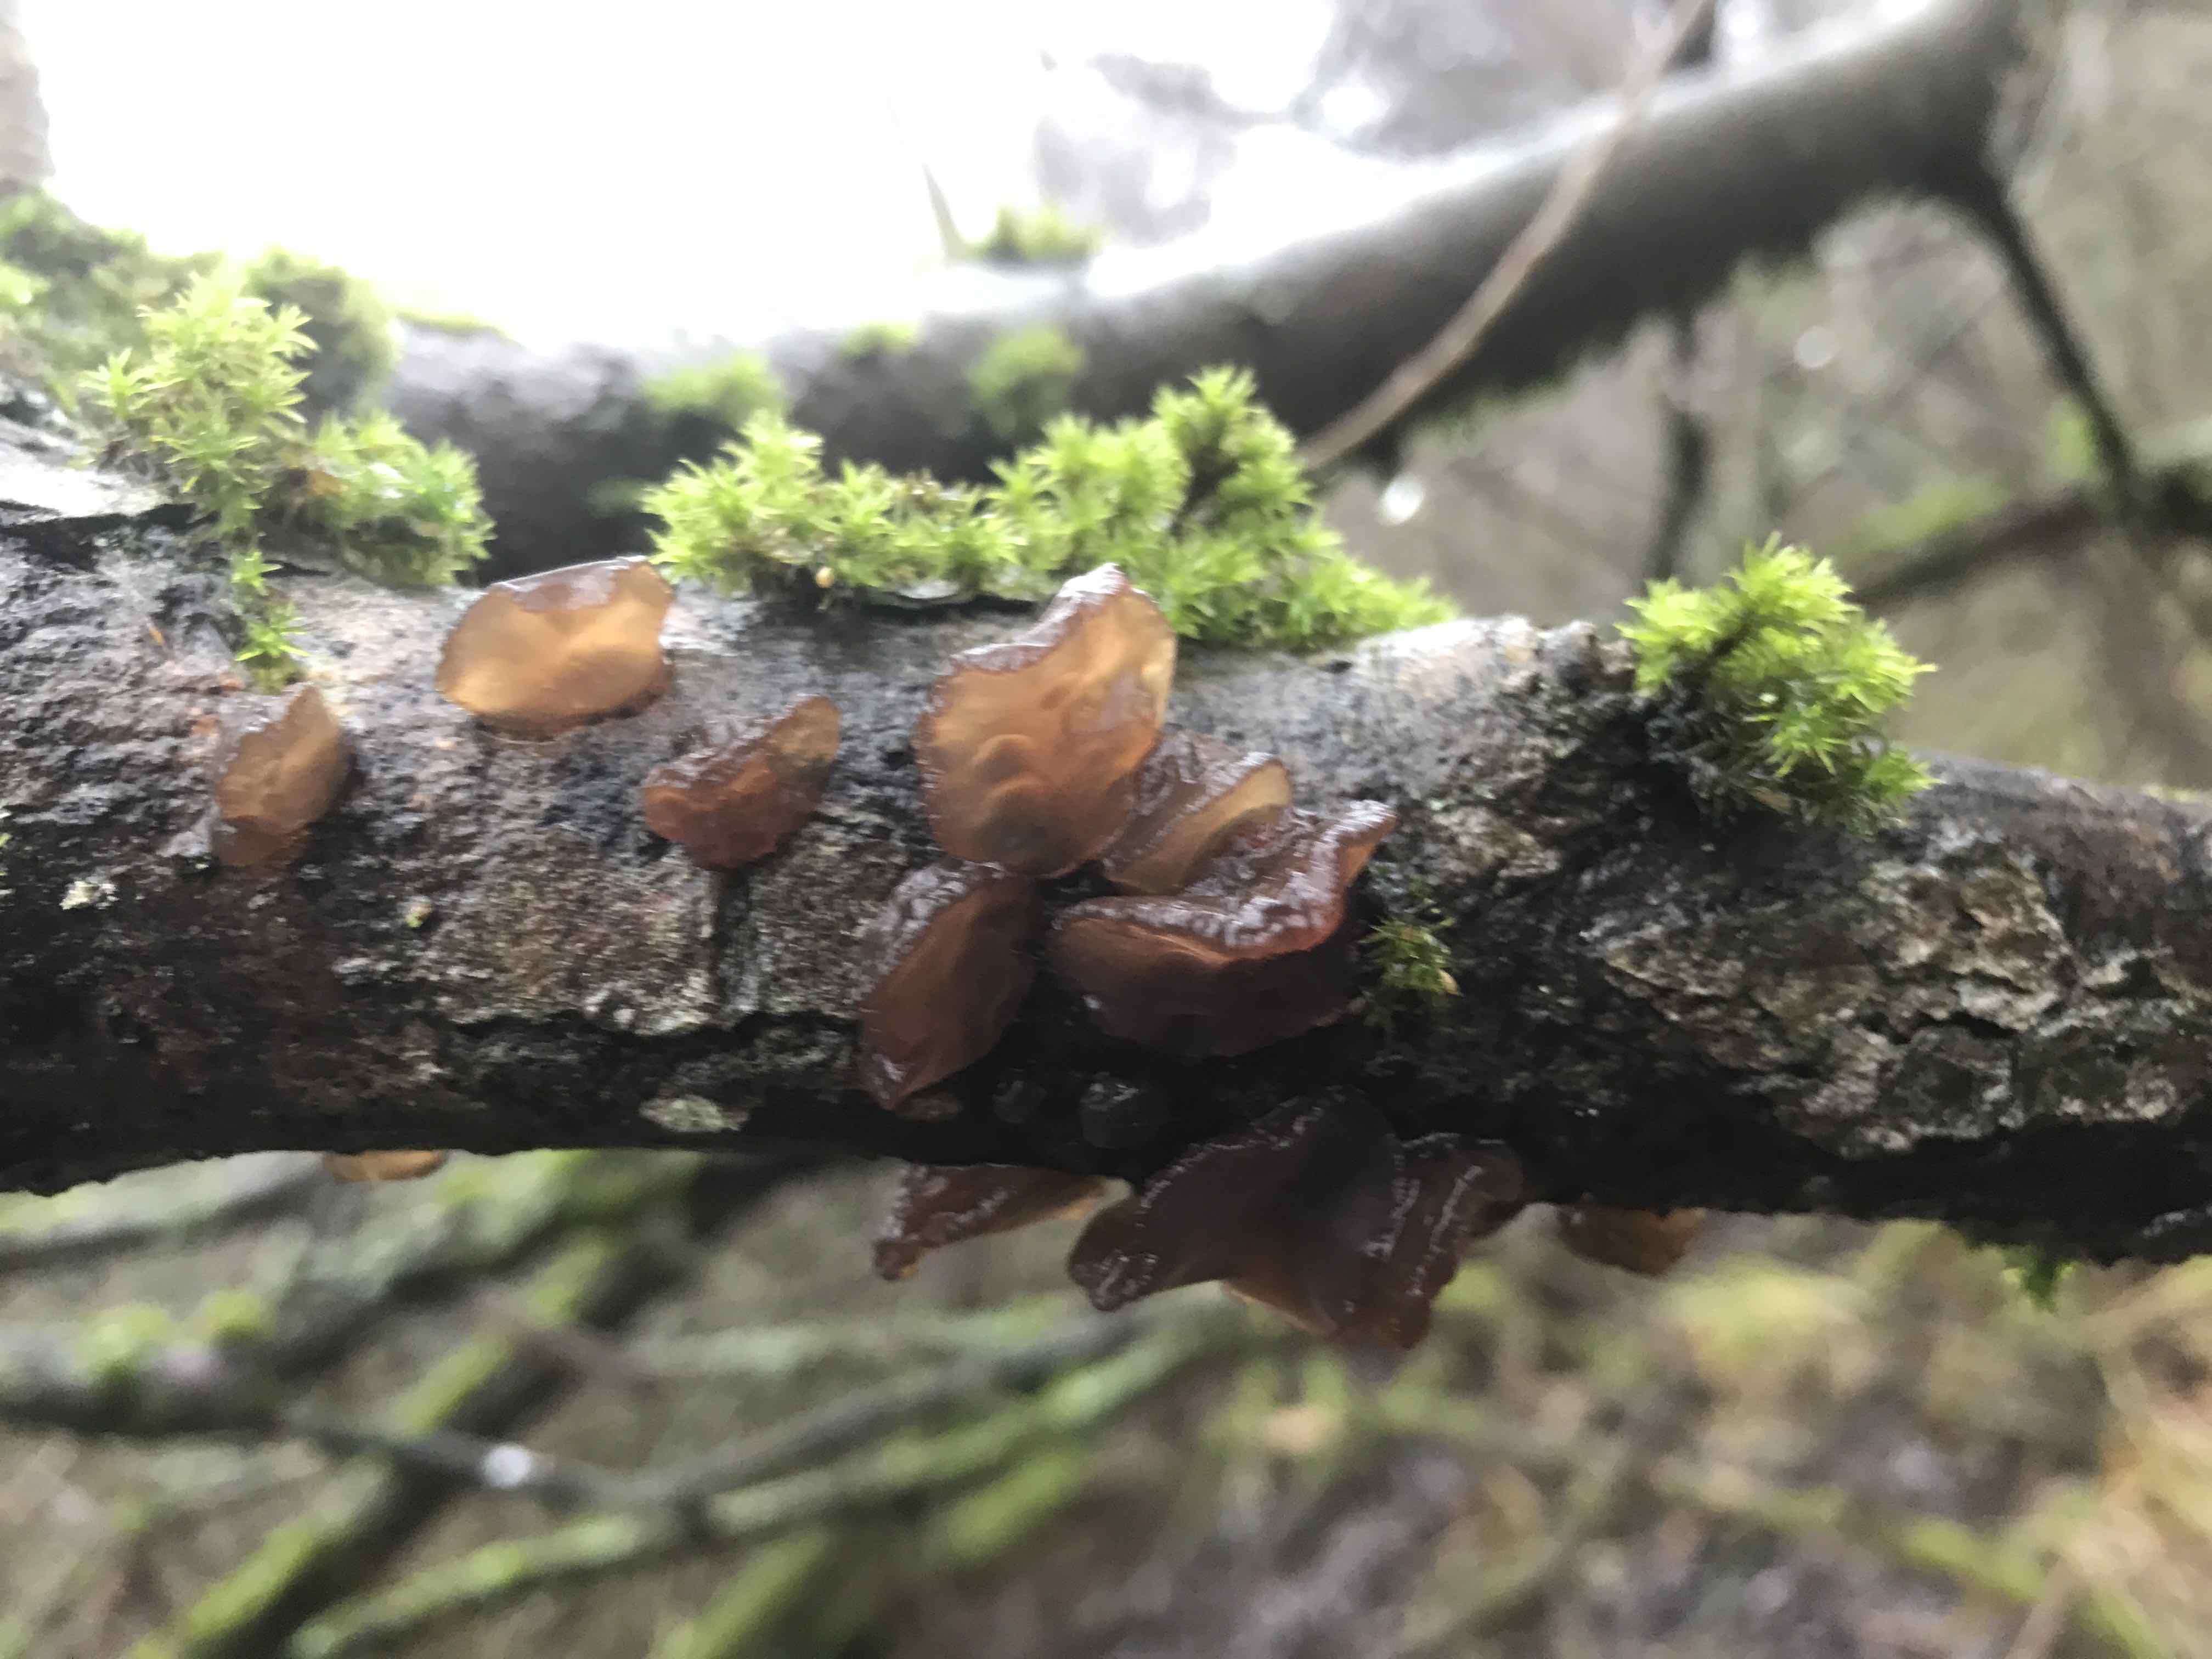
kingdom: Fungi
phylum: Basidiomycota
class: Agaricomycetes
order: Auriculariales
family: Auriculariaceae
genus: Exidia
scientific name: Exidia recisa
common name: pile-bævretop
